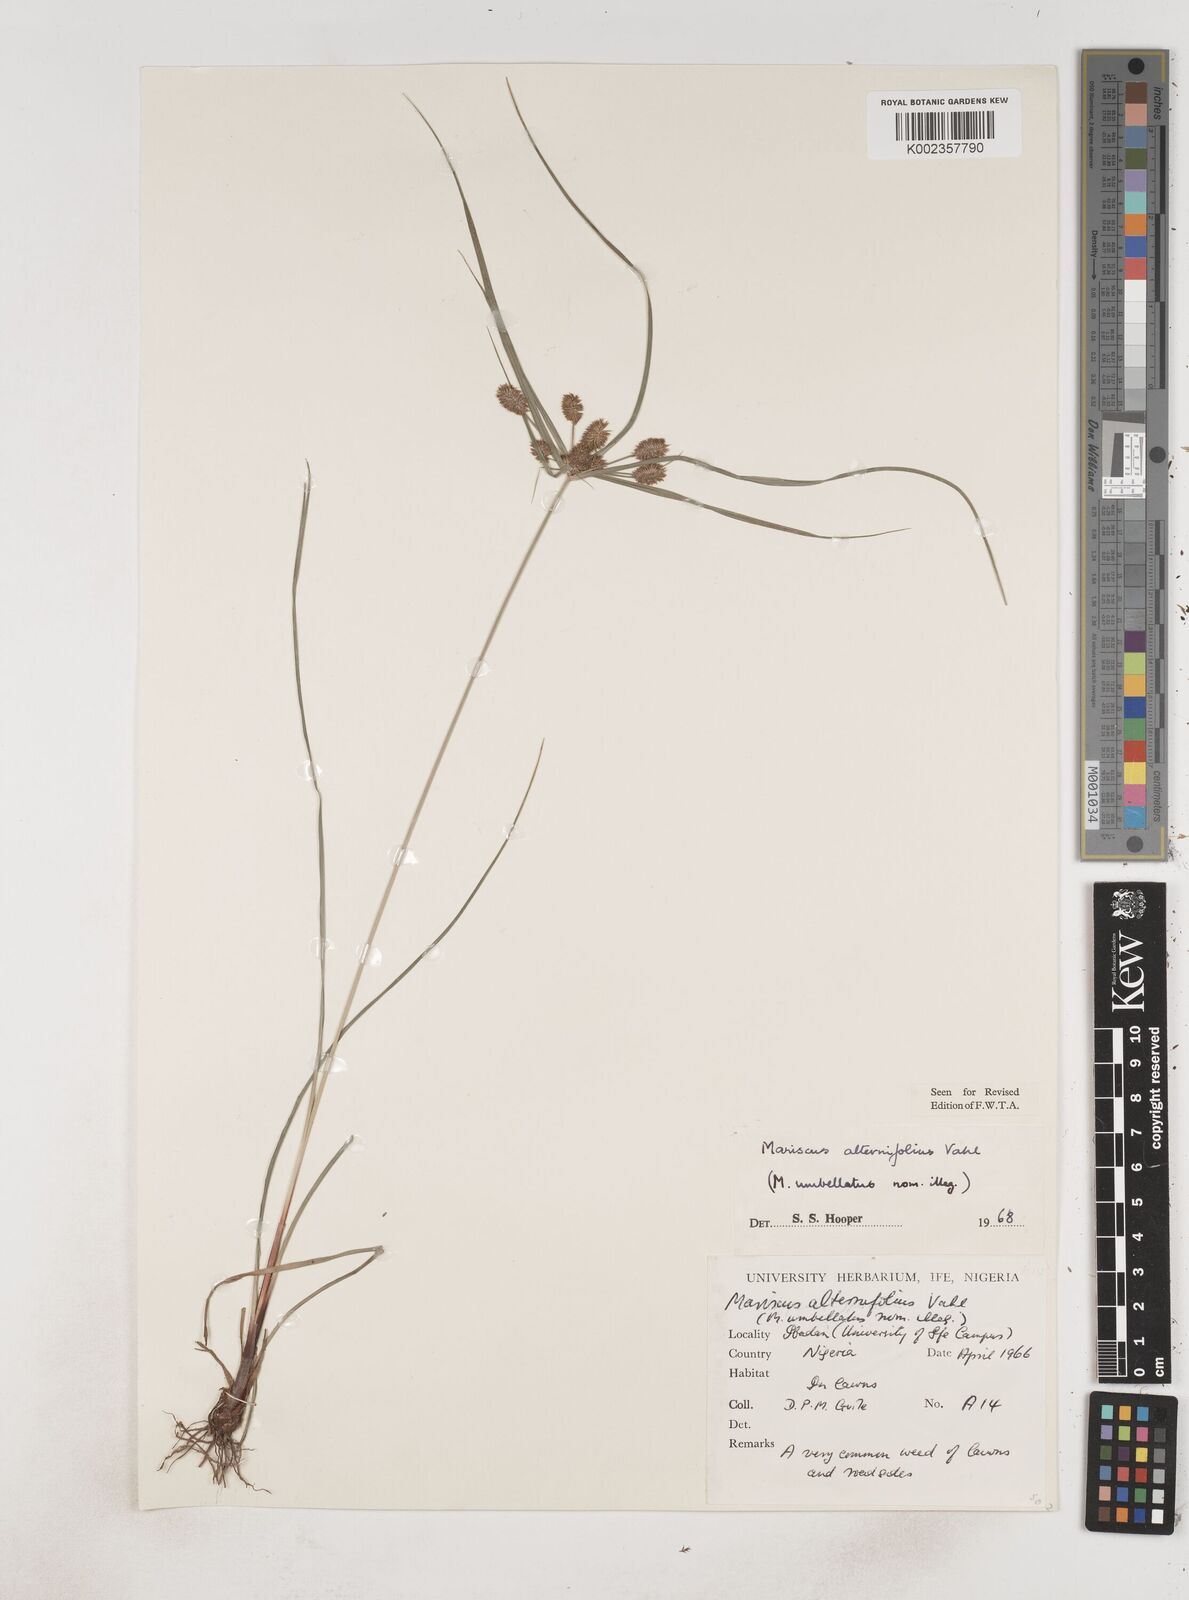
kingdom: Plantae
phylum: Tracheophyta
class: Liliopsida
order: Poales
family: Cyperaceae
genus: Cyperus
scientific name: Cyperus sublimis
